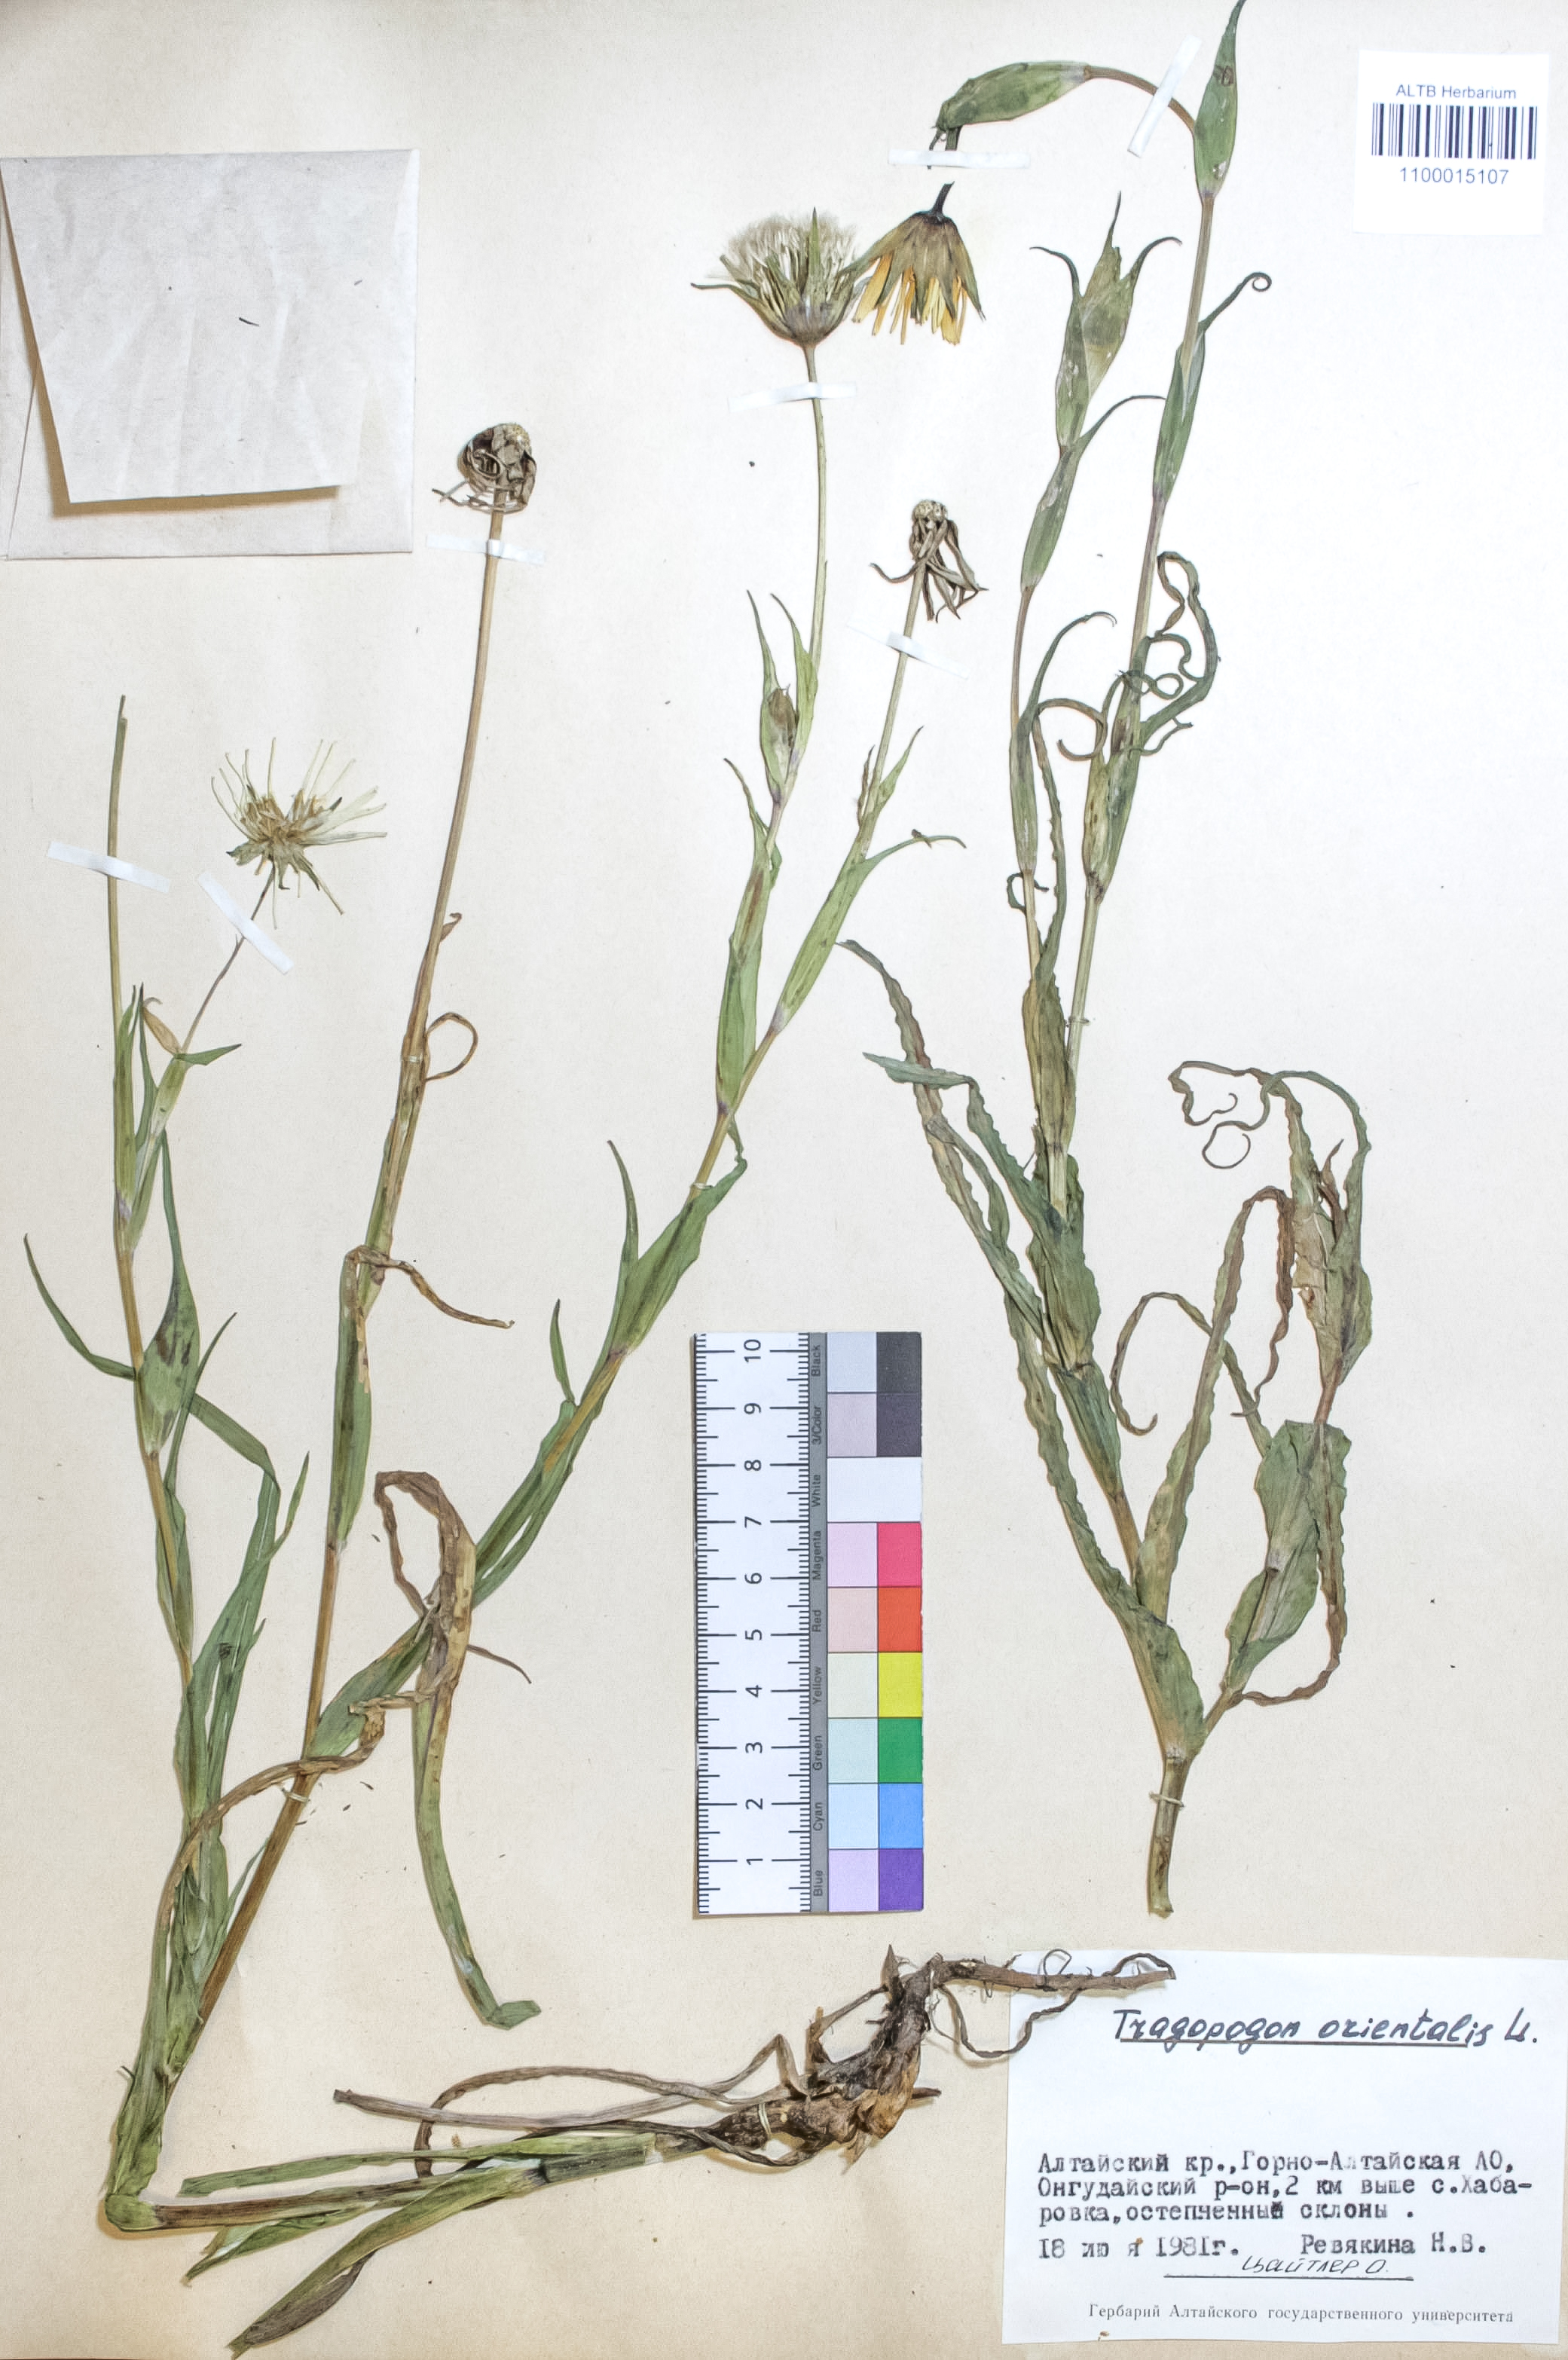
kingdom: Plantae
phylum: Tracheophyta
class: Magnoliopsida
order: Asterales
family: Asteraceae
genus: Tragopogon
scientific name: Tragopogon orientalis
